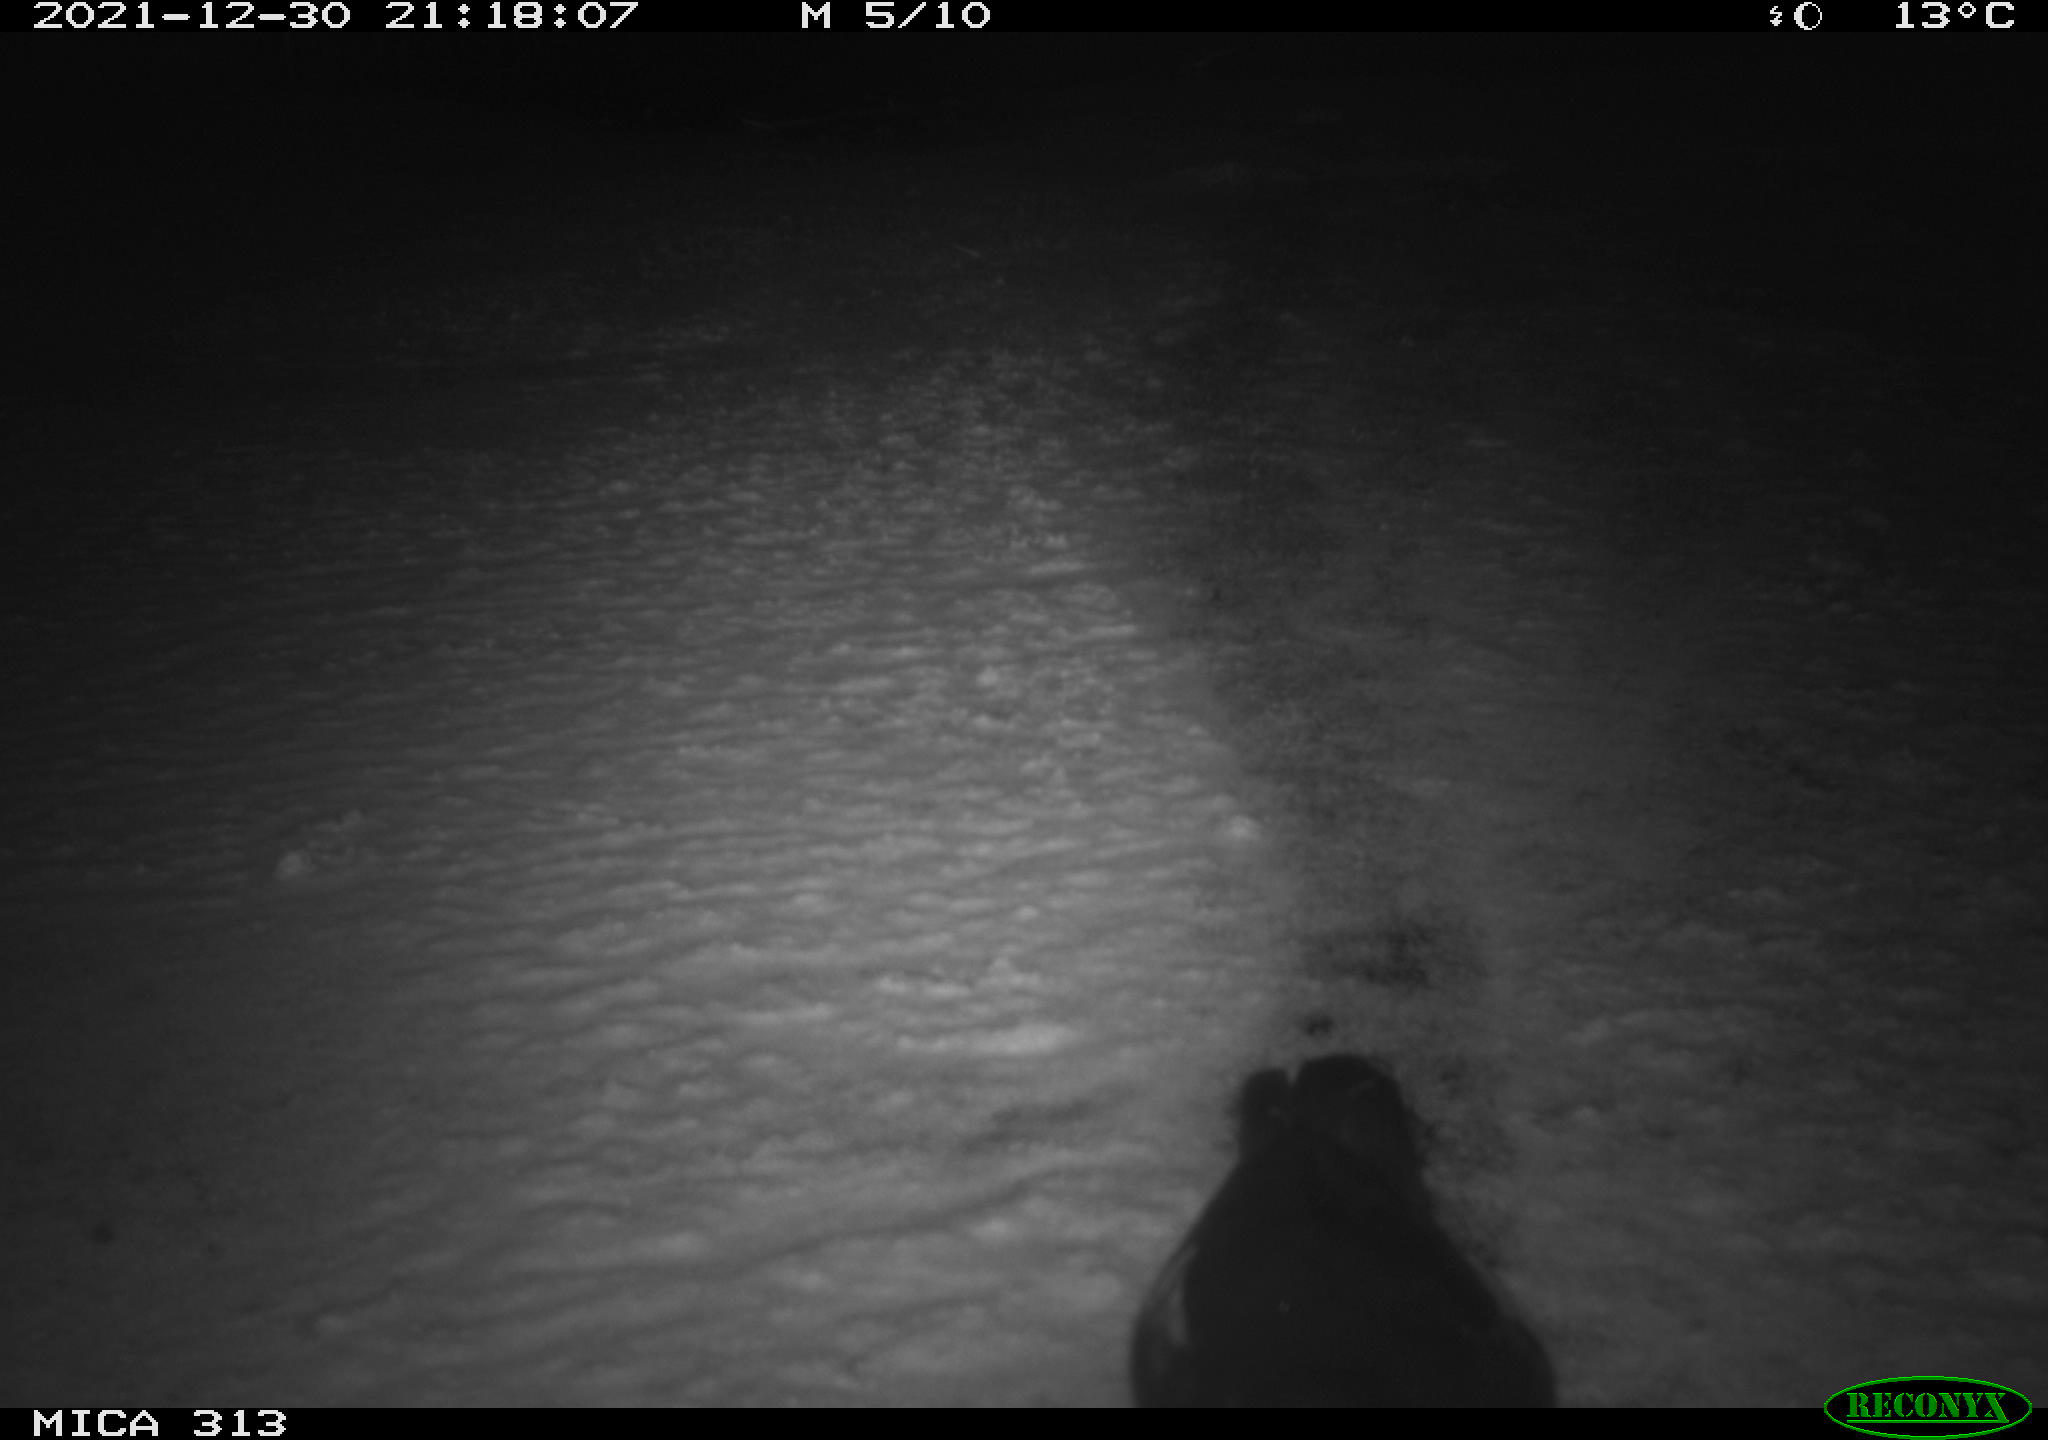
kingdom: Animalia
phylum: Chordata
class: Aves
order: Gruiformes
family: Rallidae
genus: Fulica
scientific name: Fulica atra
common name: Eurasian coot
